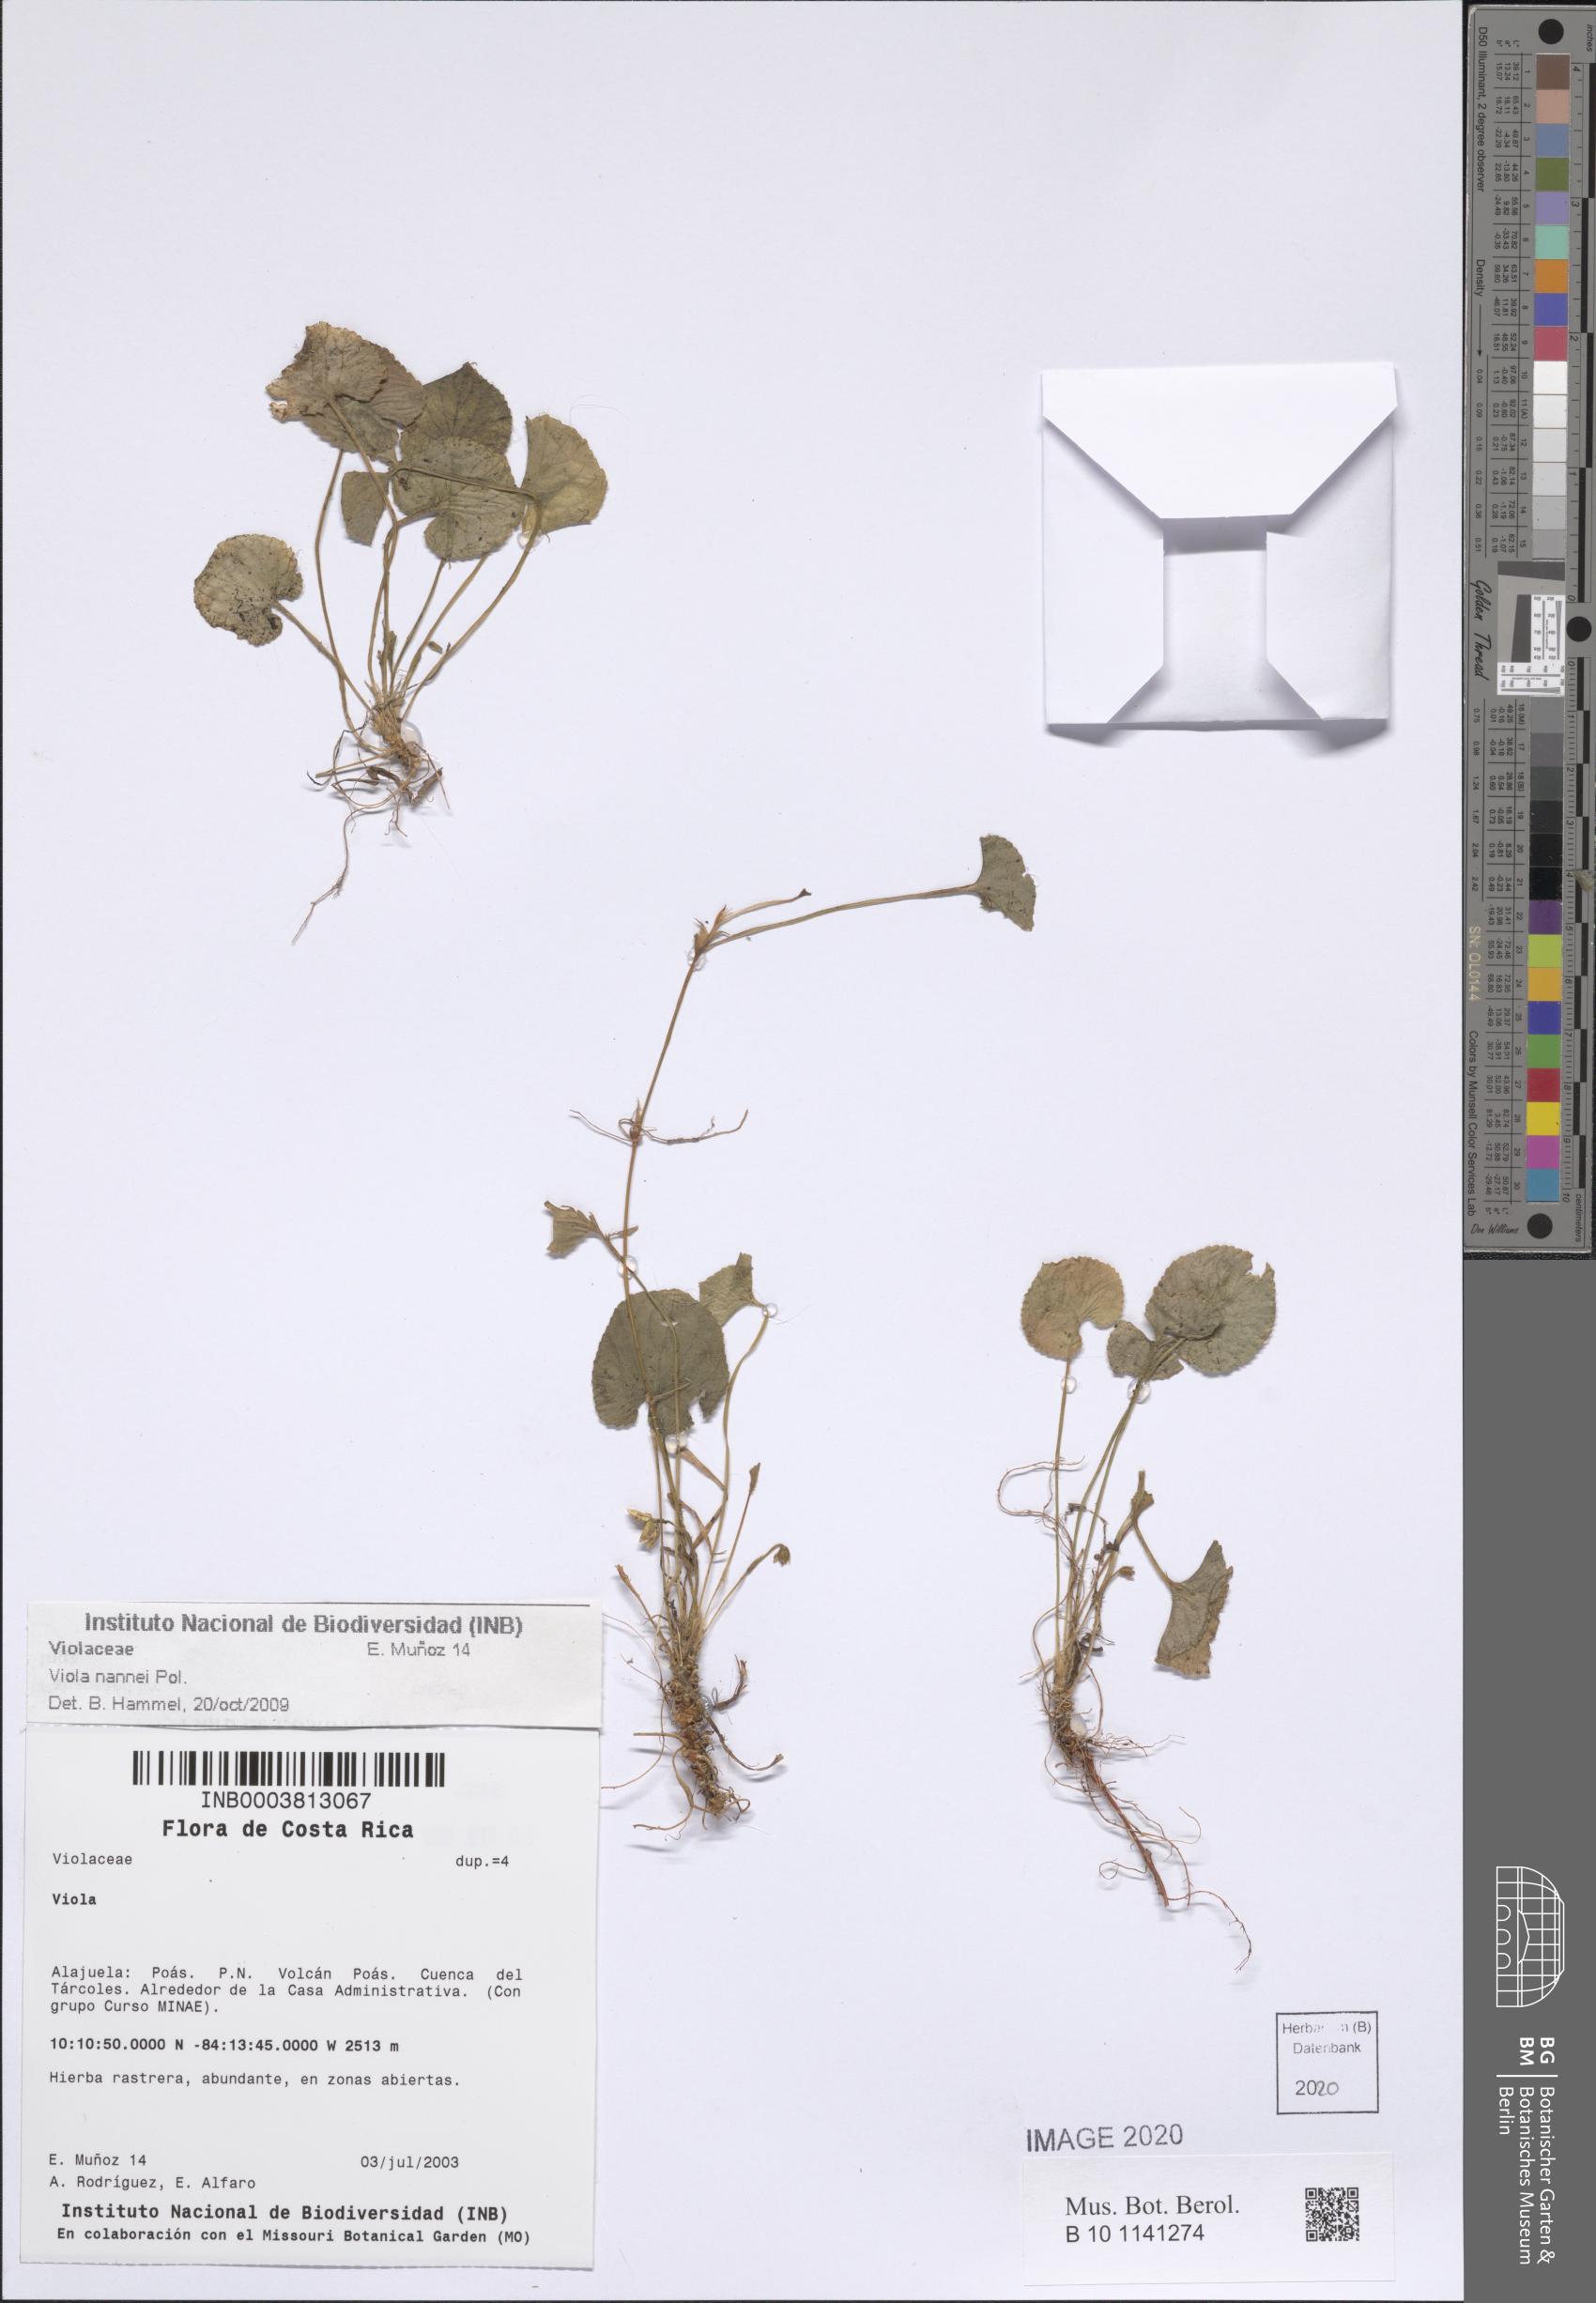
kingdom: Plantae
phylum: Tracheophyta
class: Magnoliopsida
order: Malpighiales
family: Violaceae
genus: Viola
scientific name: Viola nannei
